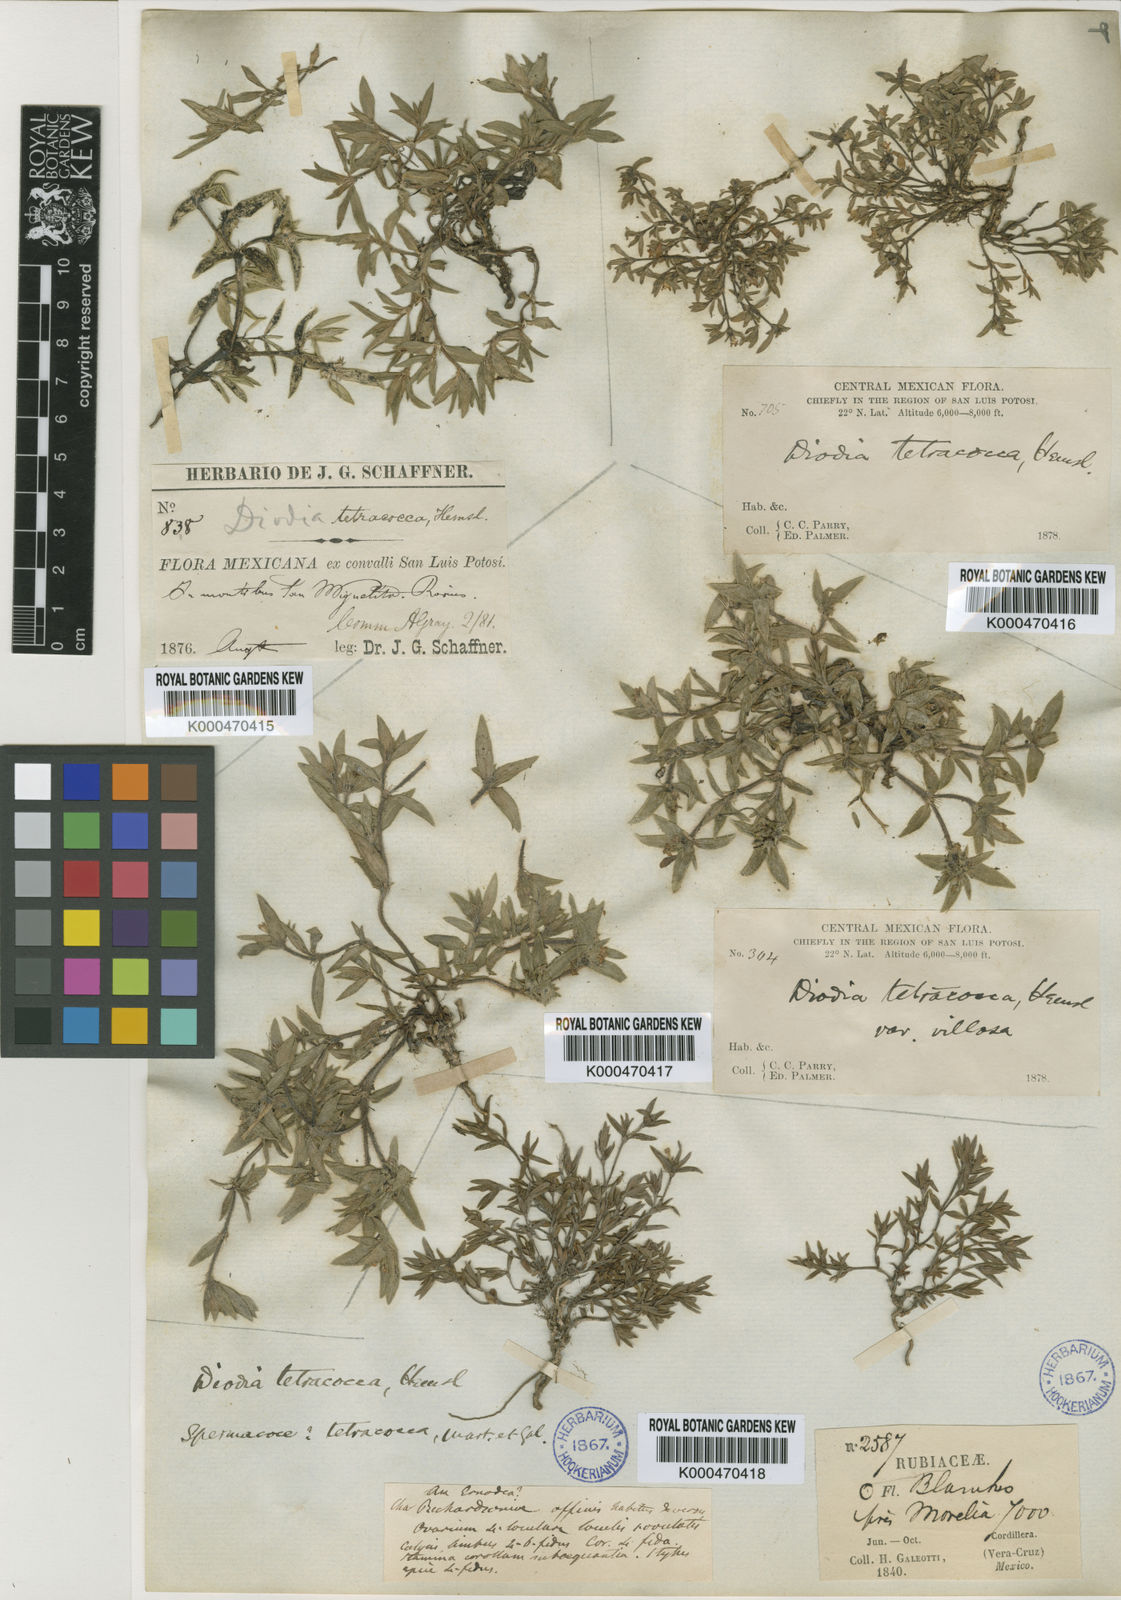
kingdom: Plantae
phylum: Tracheophyta
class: Magnoliopsida
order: Gentianales
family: Rubiaceae
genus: Richardia
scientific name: Richardia tricocca
